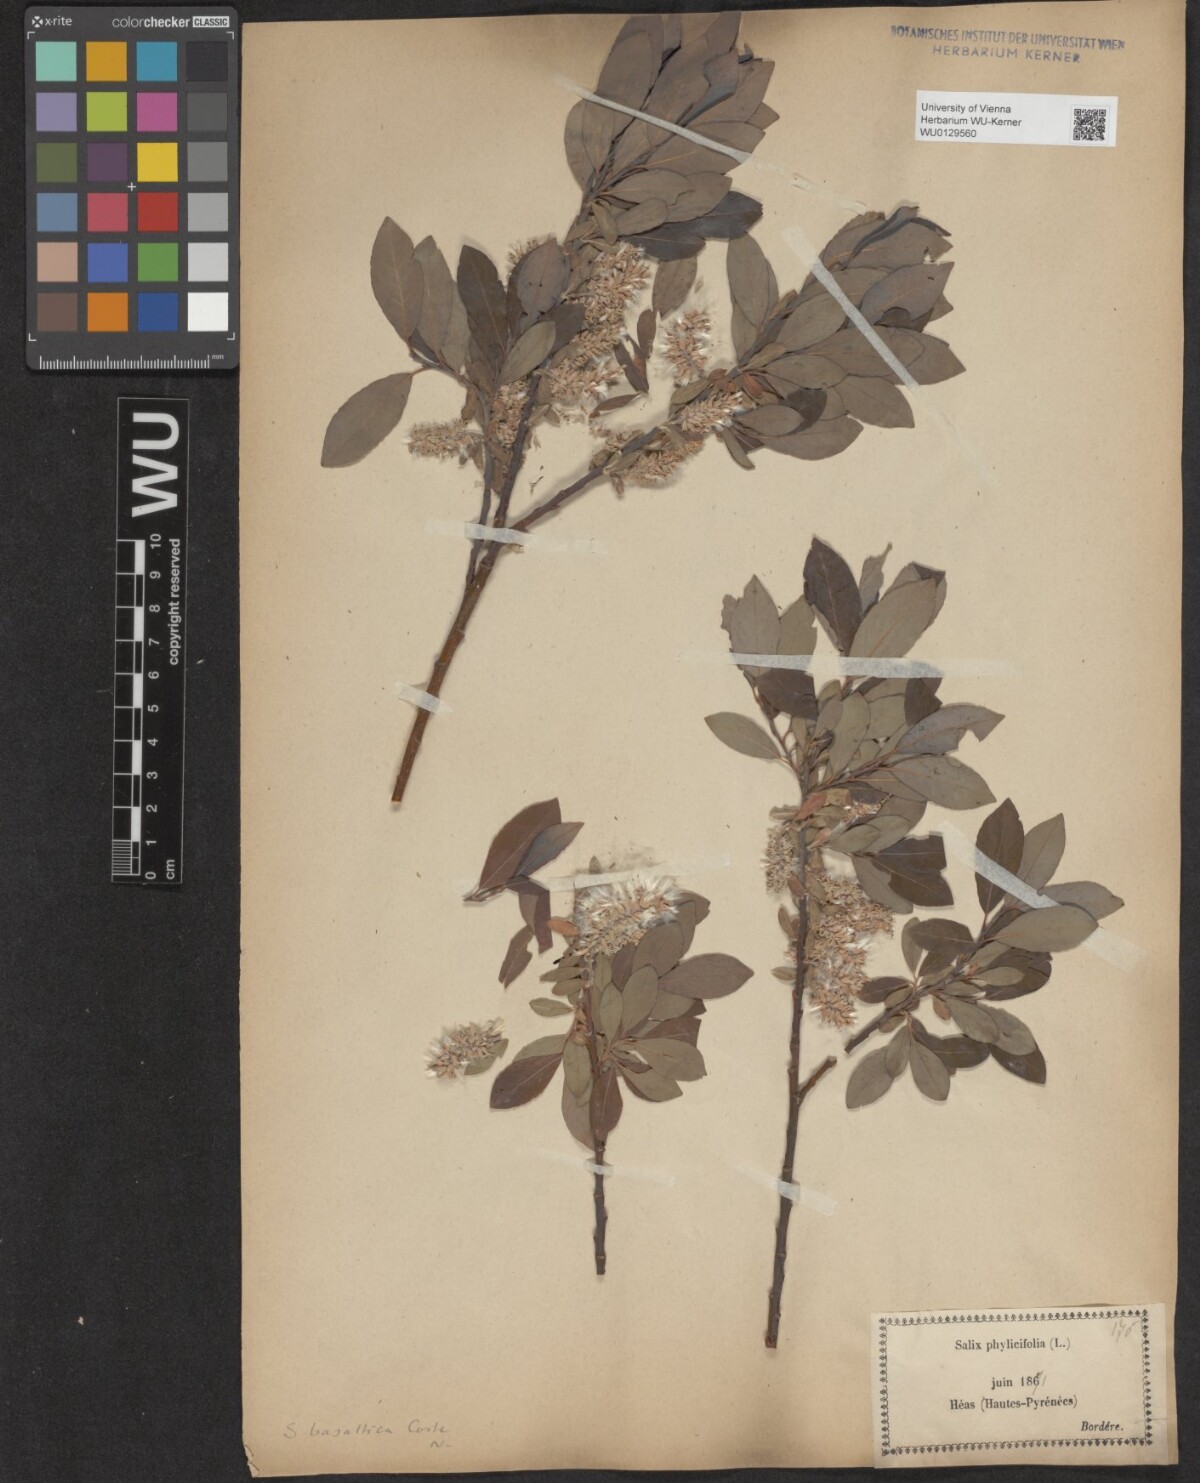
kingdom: Plantae
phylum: Tracheophyta
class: Magnoliopsida
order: Malpighiales
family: Salicaceae
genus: Salix
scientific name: Salix basaltica
